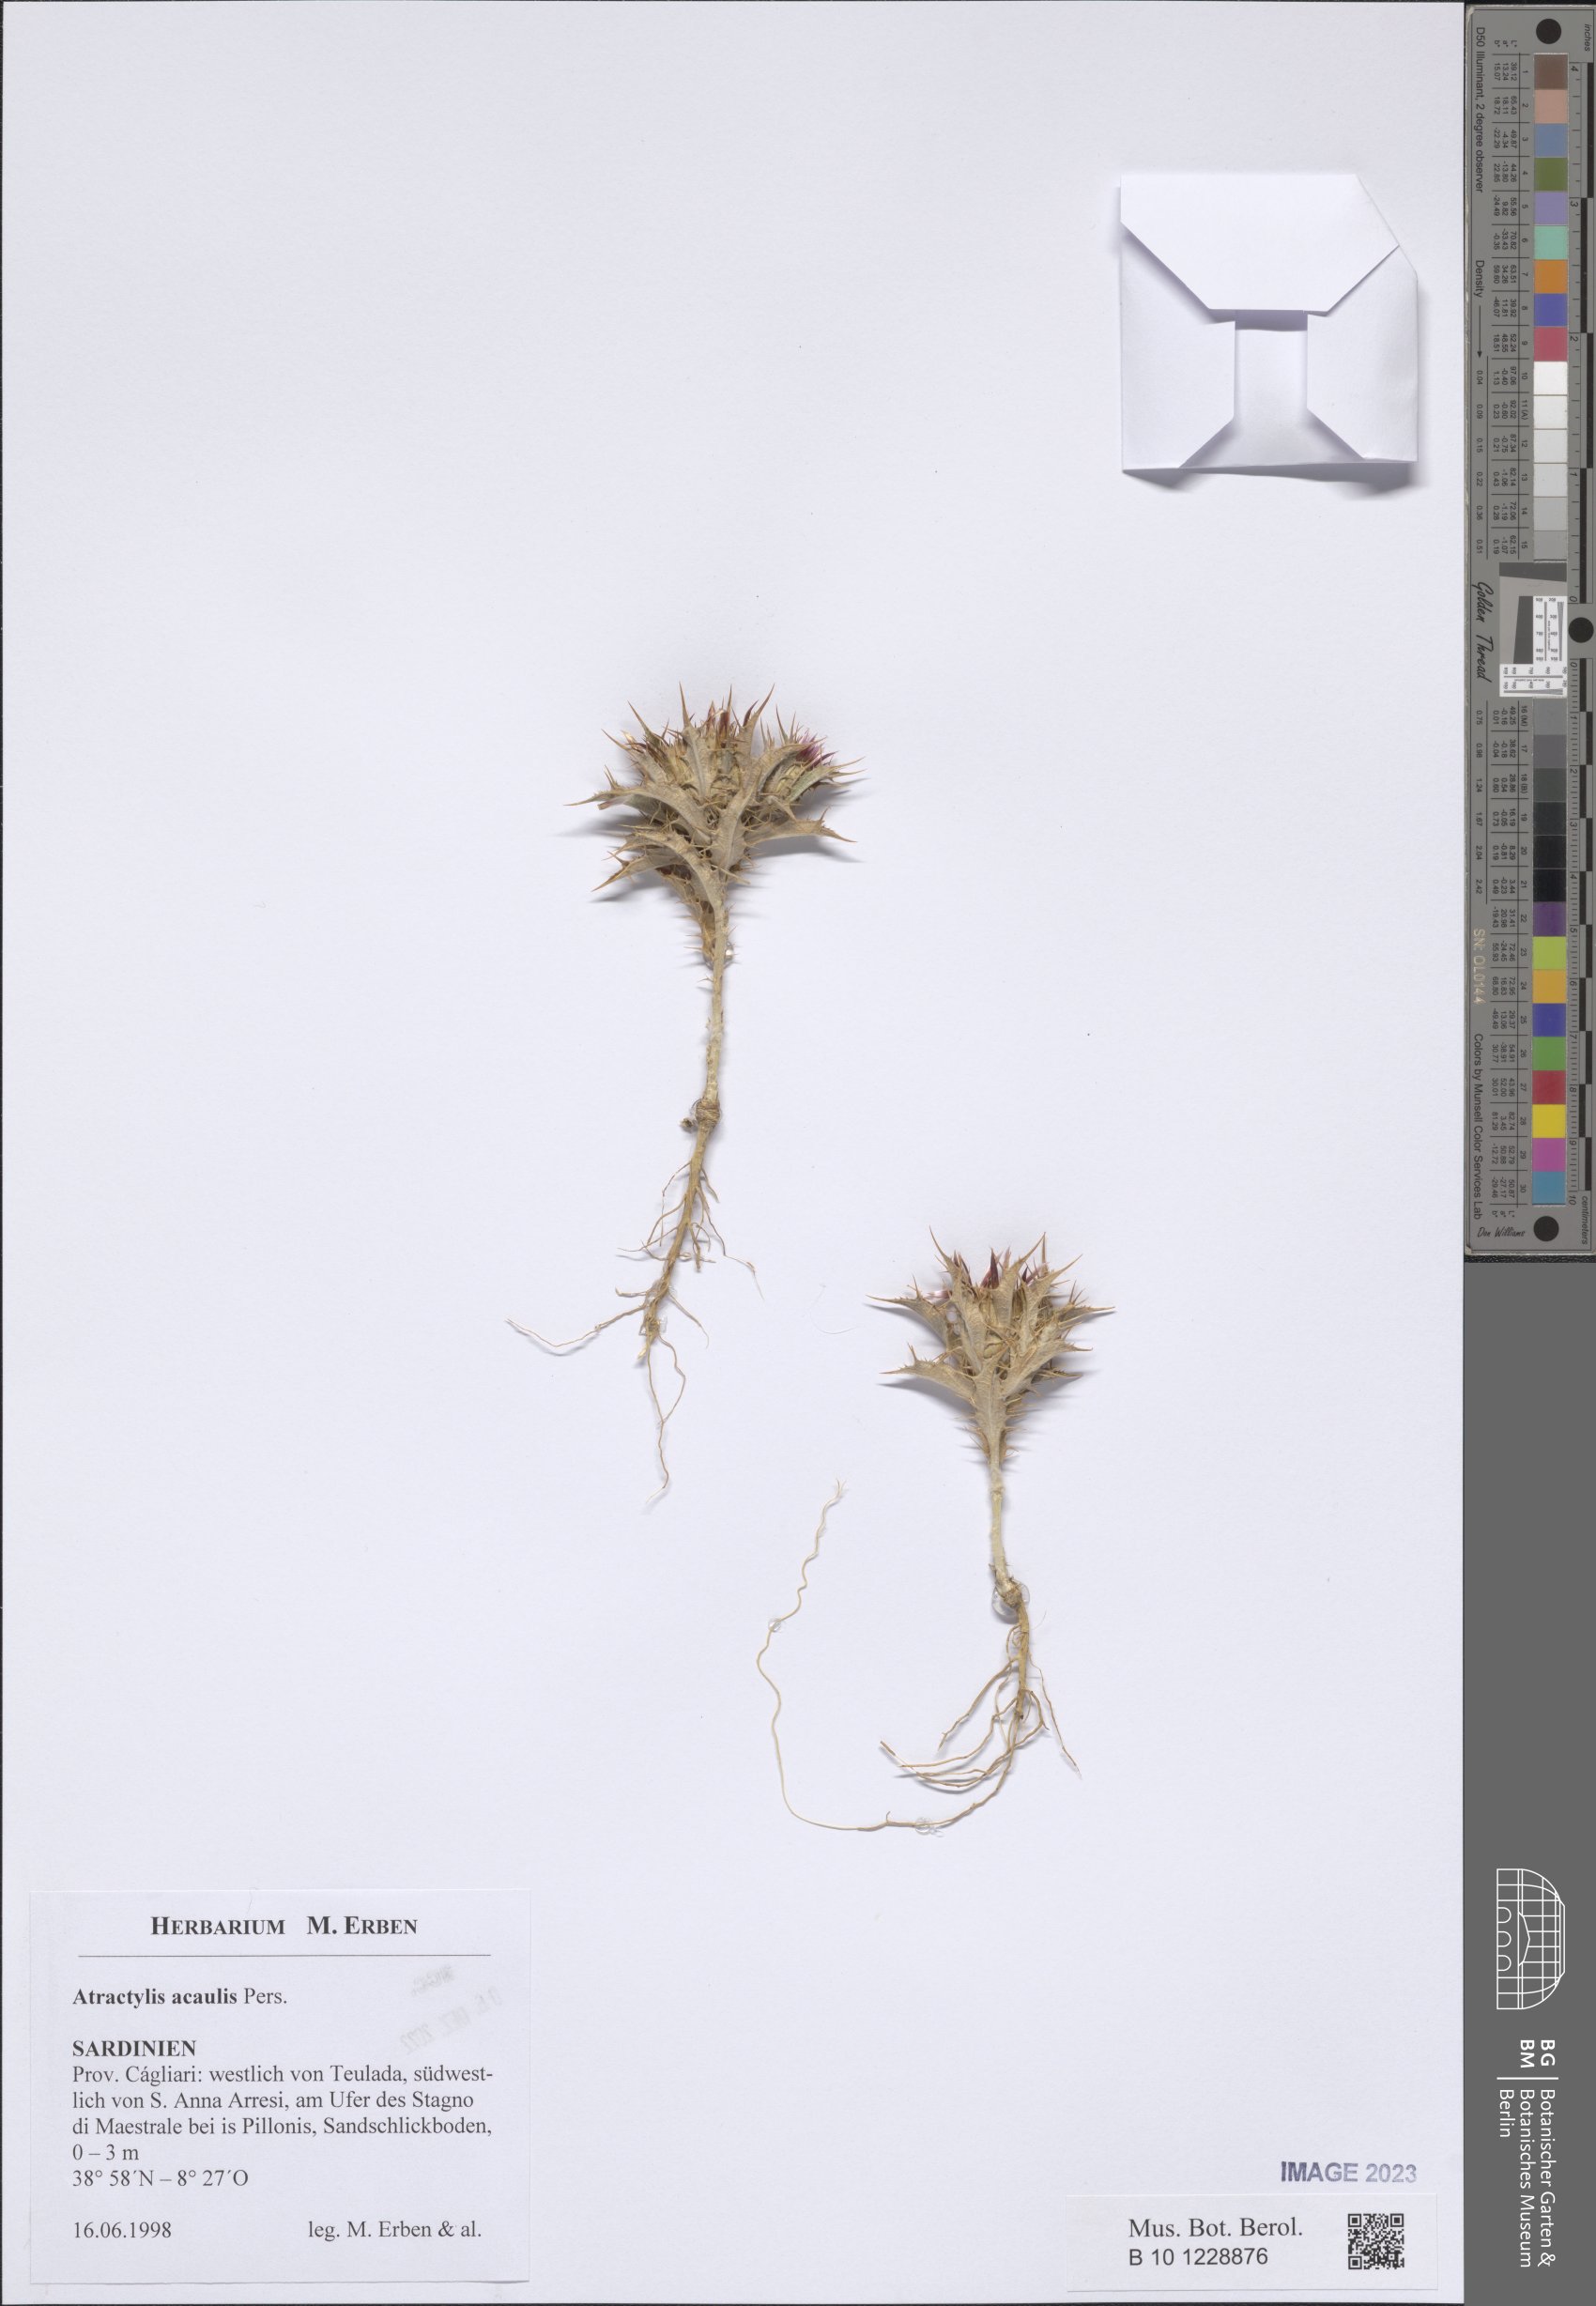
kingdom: Plantae
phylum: Tracheophyta
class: Magnoliopsida
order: Asterales
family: Asteraceae
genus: Chamaeleon
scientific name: Chamaeleon gummifer
